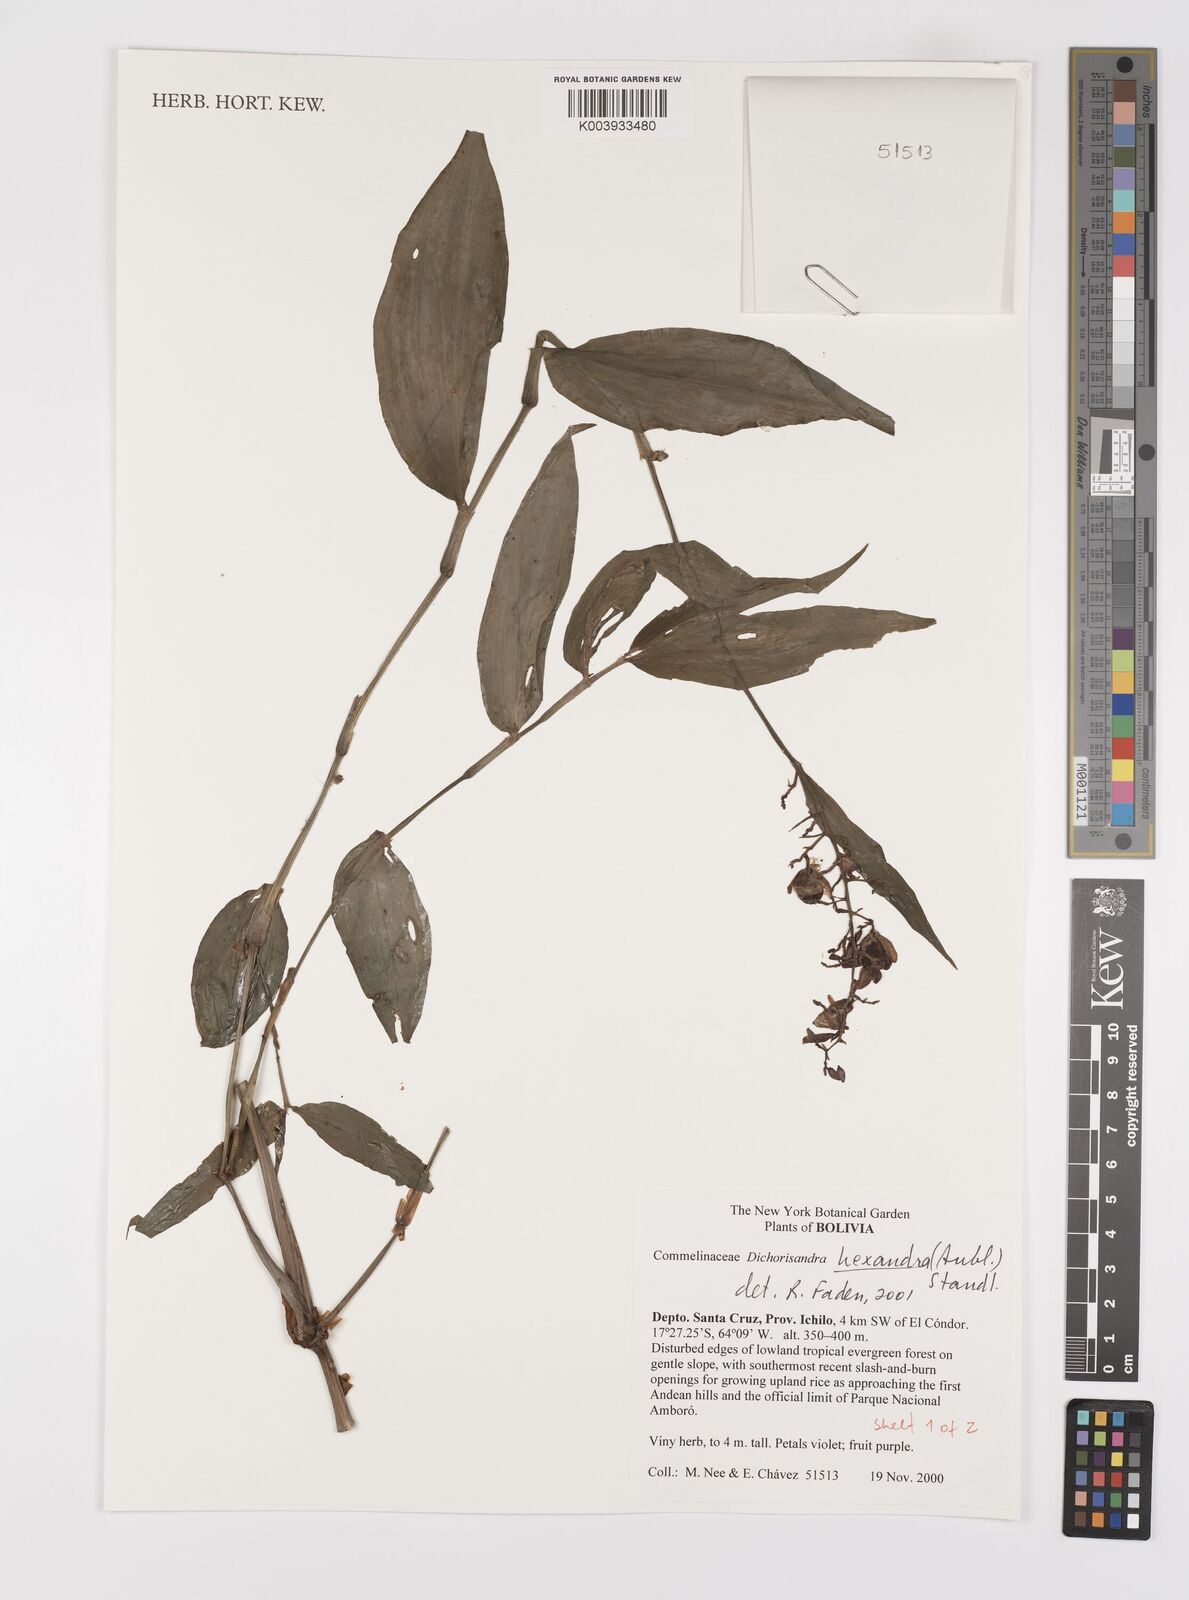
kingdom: Plantae
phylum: Tracheophyta
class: Liliopsida
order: Commelinales
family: Commelinaceae
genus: Dichorisandra
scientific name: Dichorisandra hexandra
